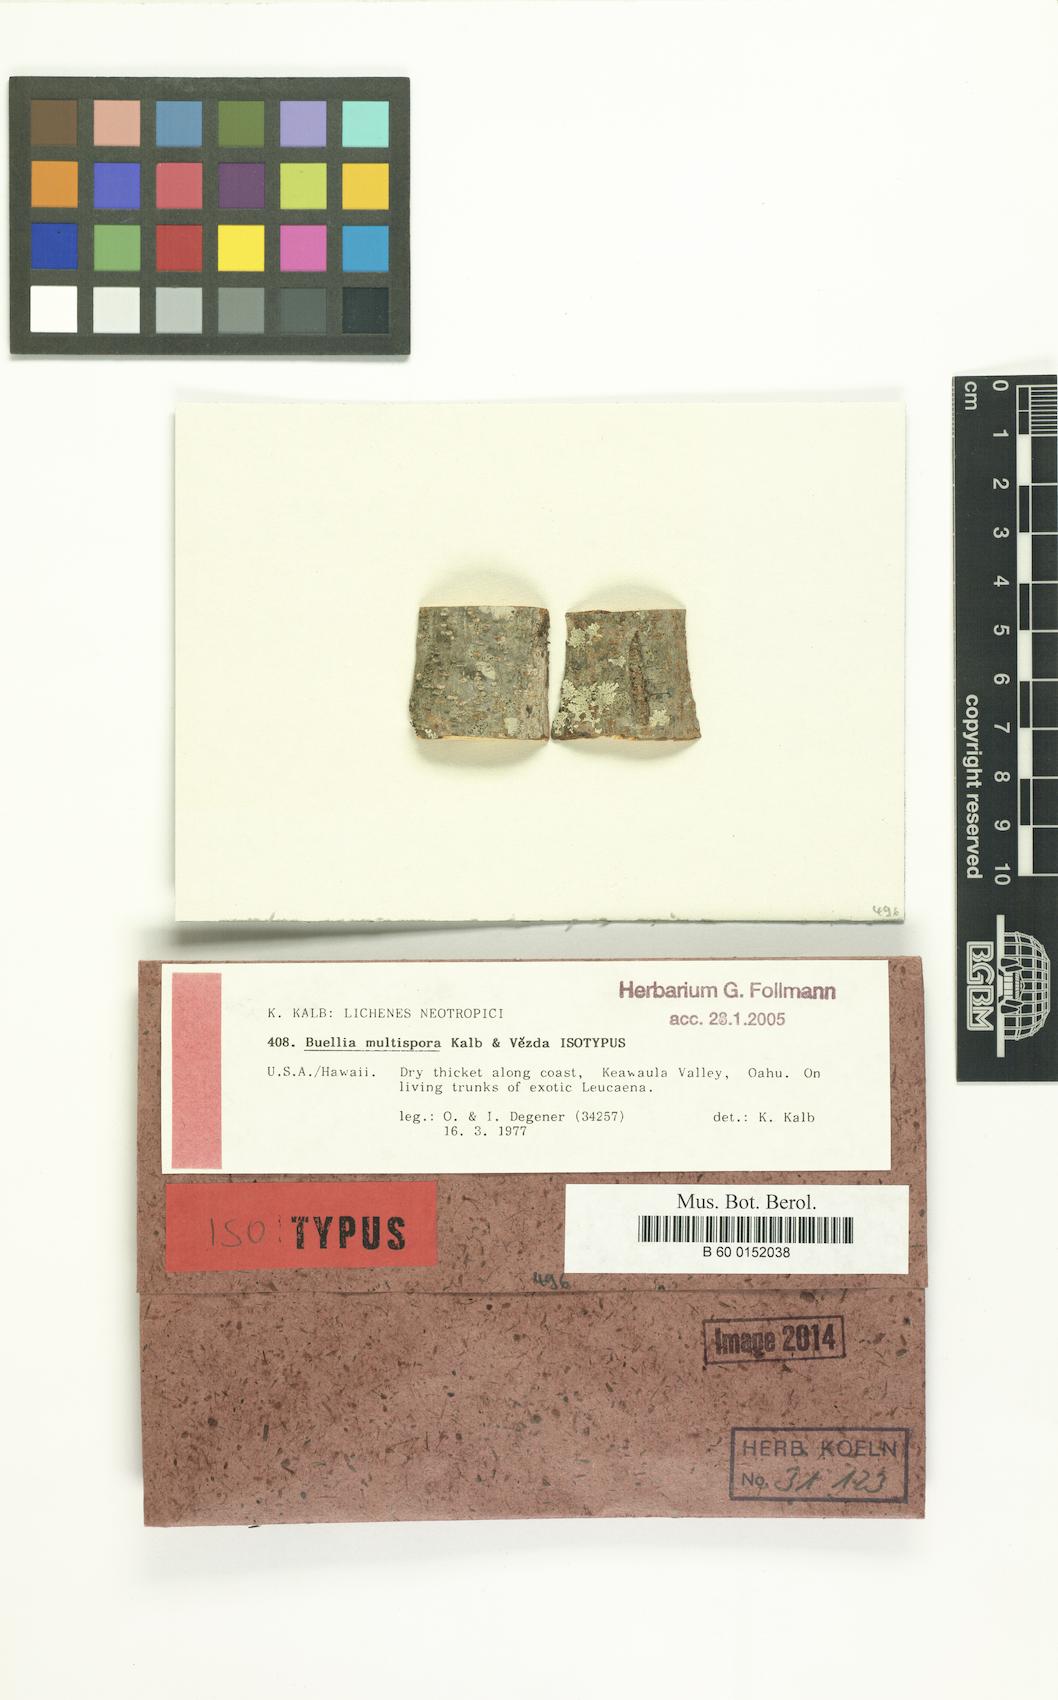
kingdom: Fungi
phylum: Ascomycota
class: Lecanoromycetes
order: Caliciales
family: Caliciaceae
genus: Buellia
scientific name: Buellia multispora
